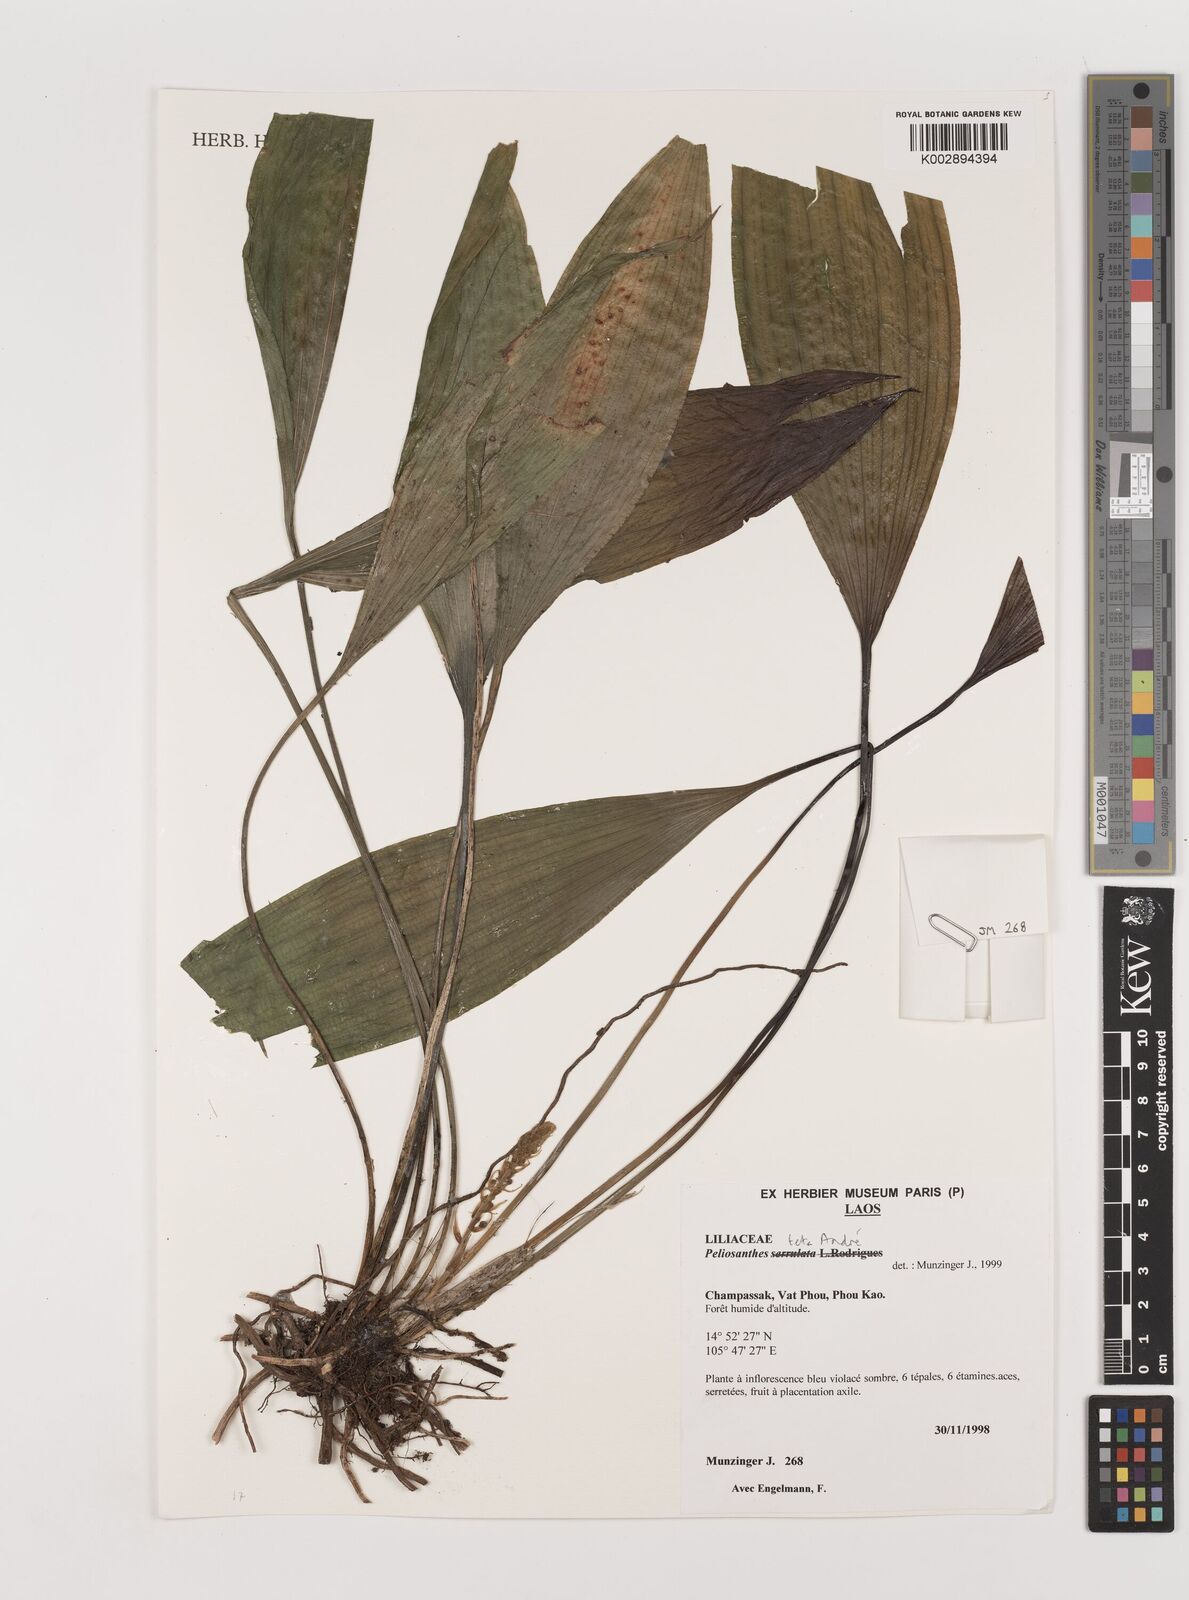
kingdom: Plantae
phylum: Tracheophyta
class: Liliopsida
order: Asparagales
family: Asparagaceae
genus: Peliosanthes
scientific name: Peliosanthes teta
